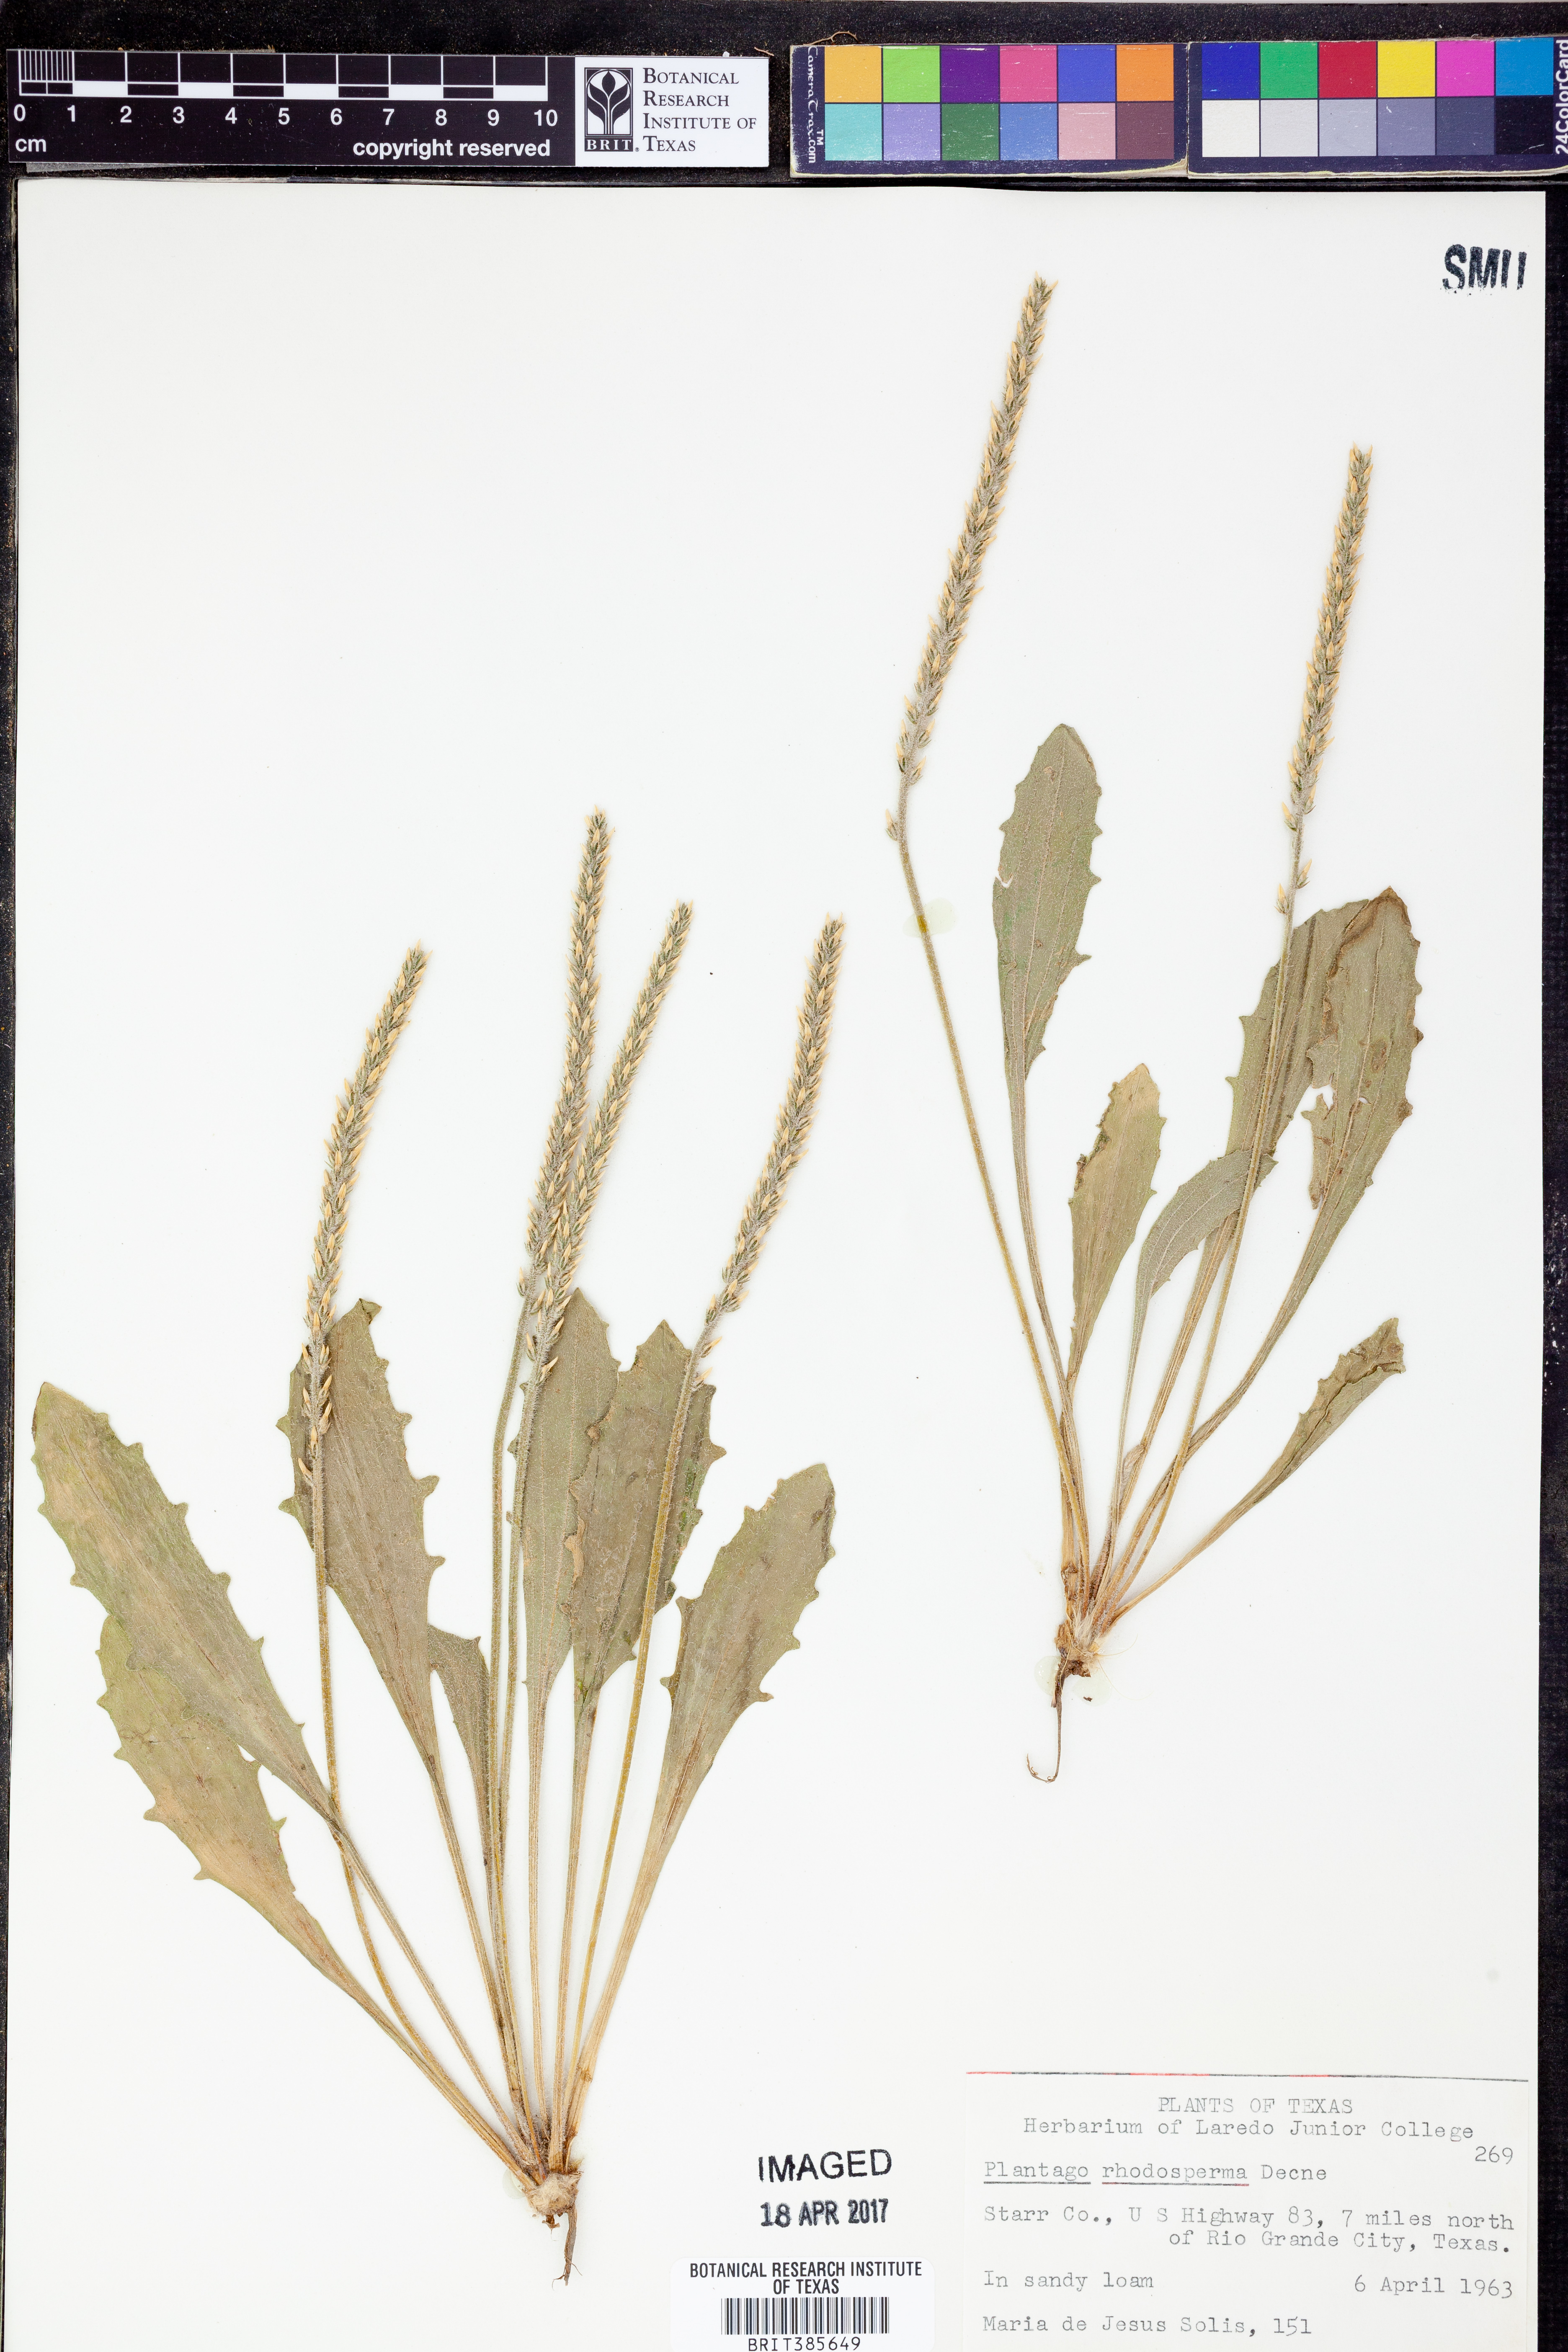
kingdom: Plantae
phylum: Tracheophyta
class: Magnoliopsida
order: Lamiales
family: Plantaginaceae
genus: Plantago
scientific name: Plantago rhodosperma
